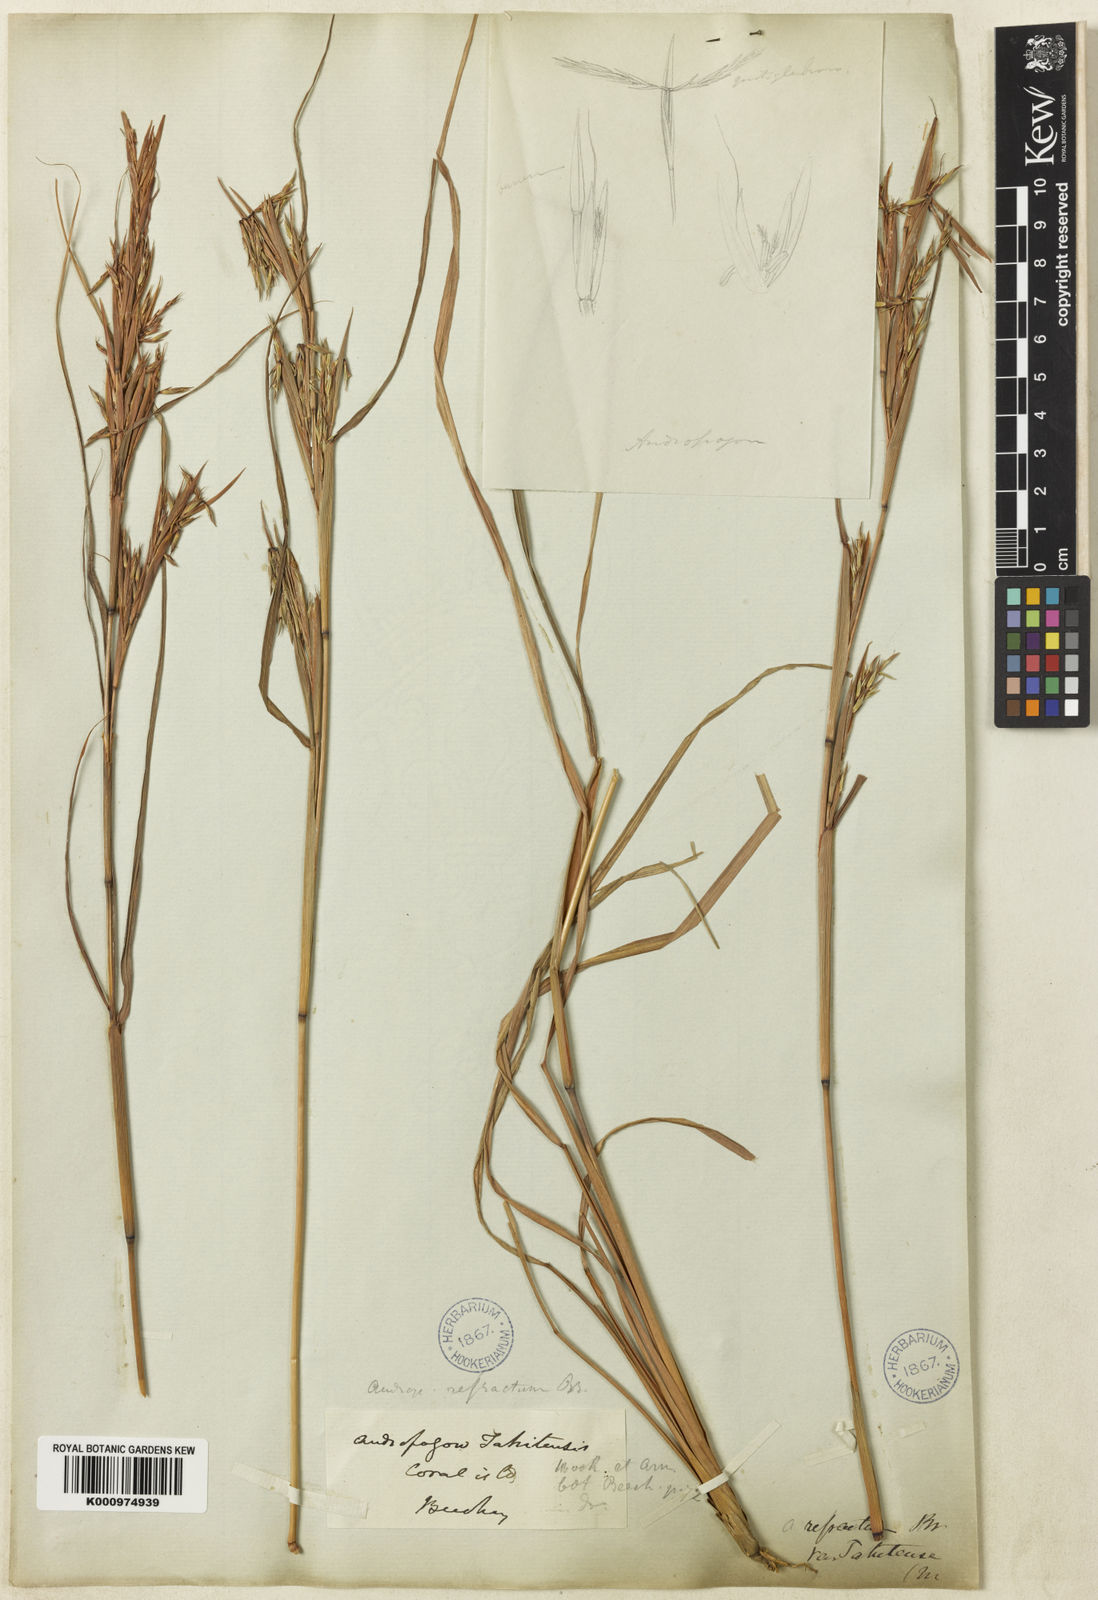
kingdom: Plantae
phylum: Tracheophyta
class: Liliopsida
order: Poales
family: Poaceae
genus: Cymbopogon
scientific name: Cymbopogon refractus
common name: Barbwire grass
